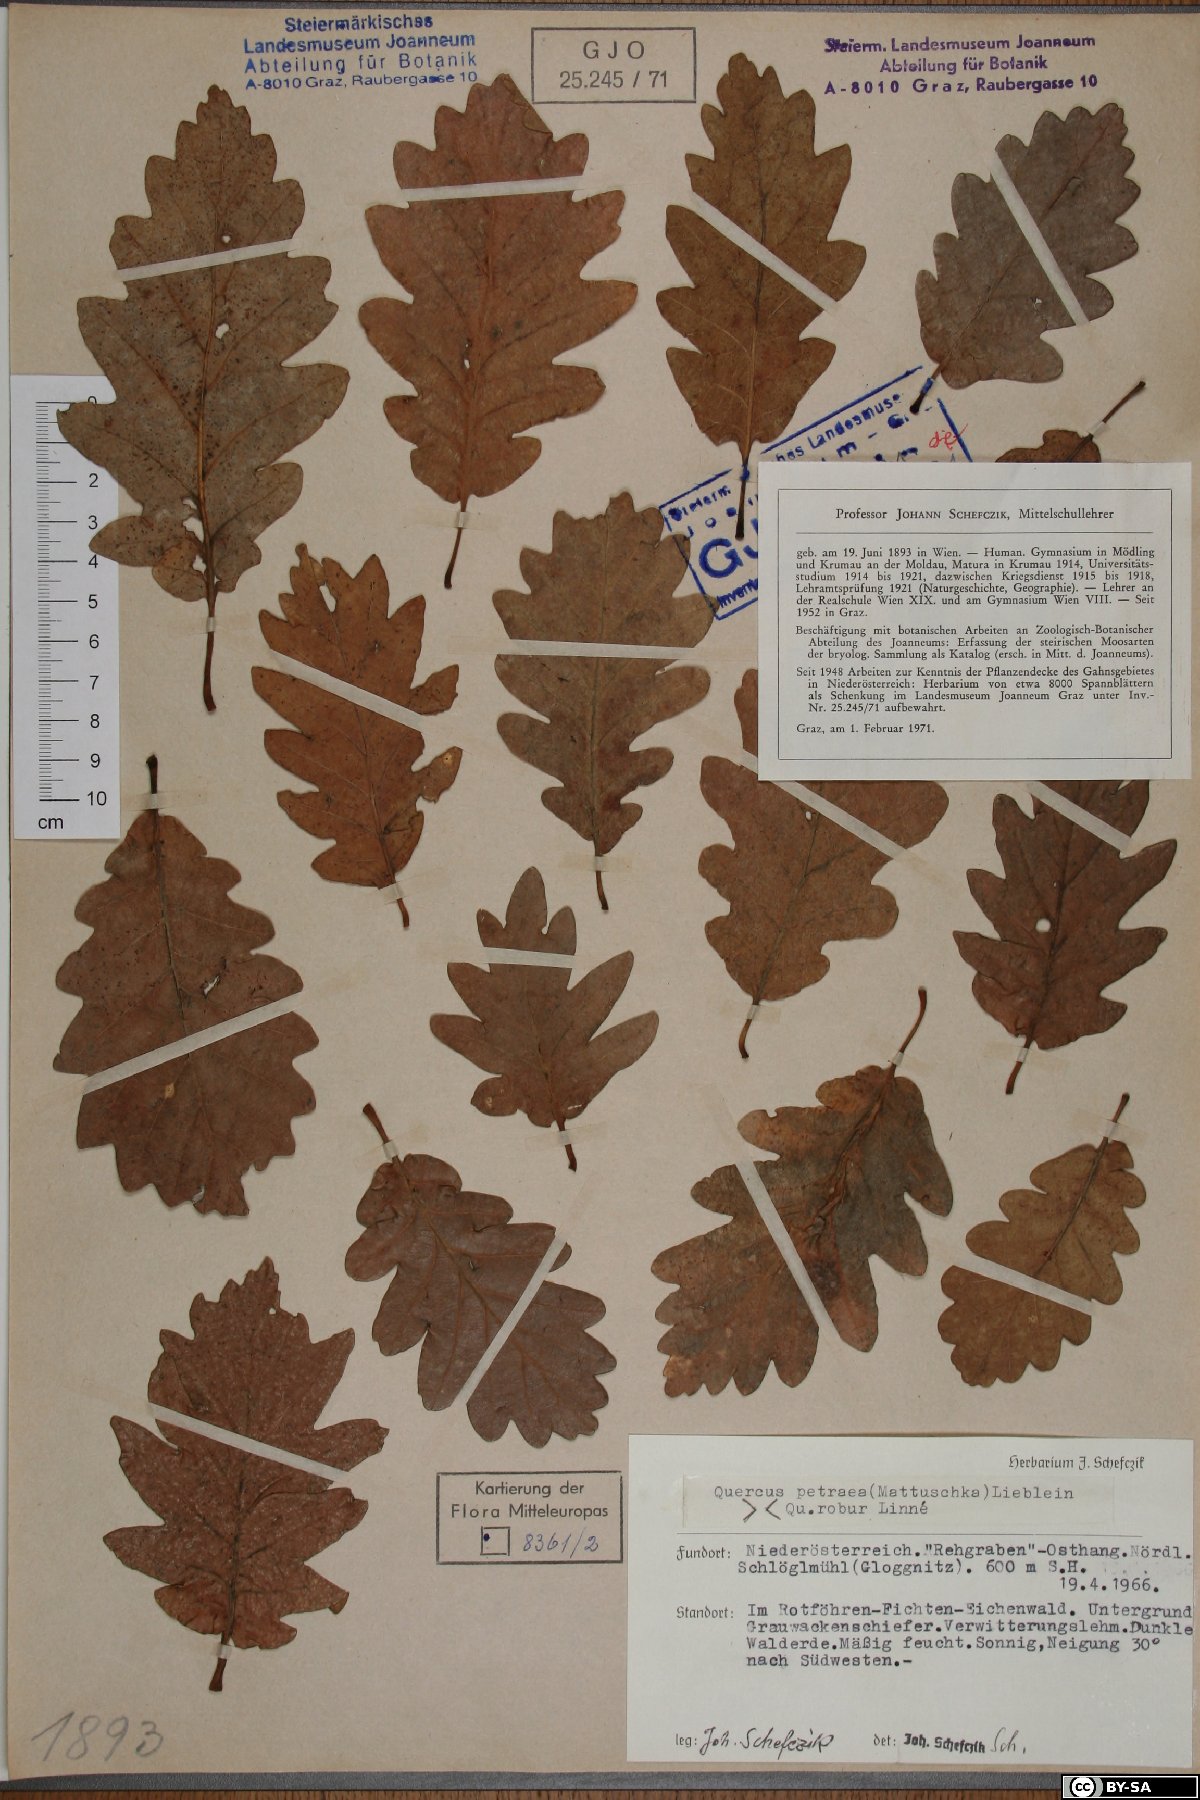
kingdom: Plantae
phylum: Tracheophyta
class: Magnoliopsida
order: Fagales
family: Fagaceae
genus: Quercus
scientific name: Quercus petraea
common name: Sessile oak
